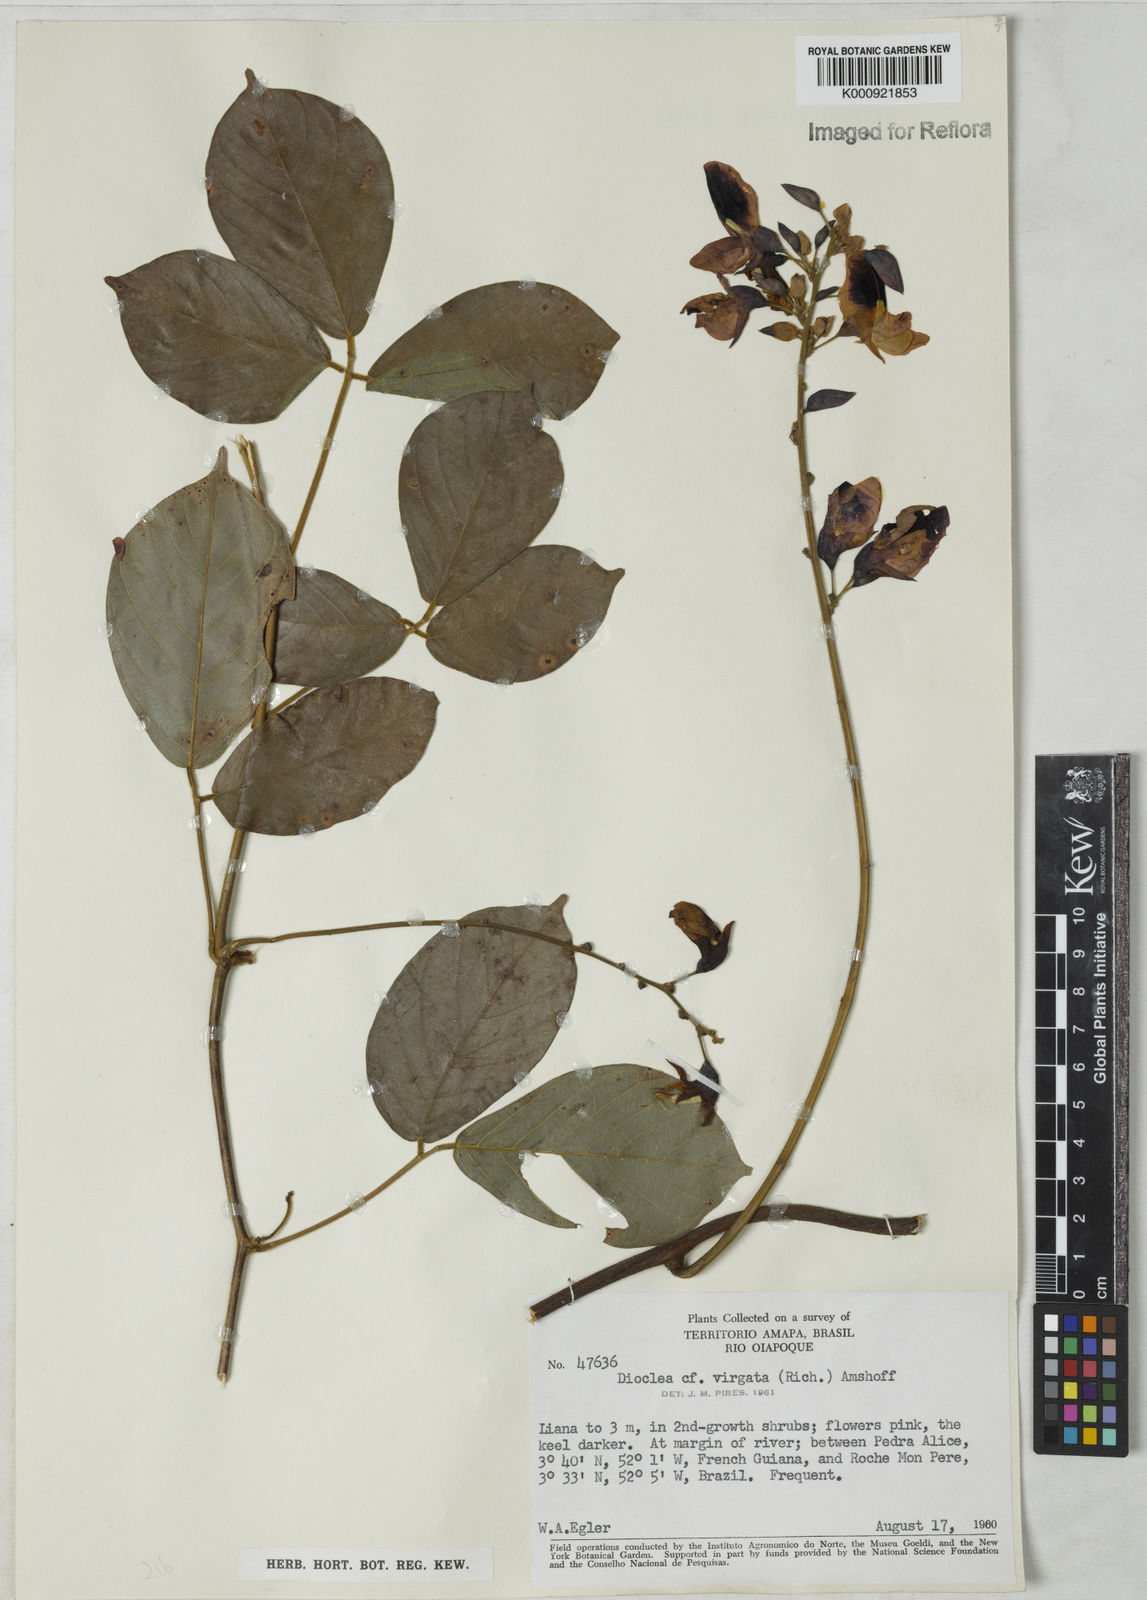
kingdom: Plantae
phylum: Tracheophyta
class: Magnoliopsida
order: Fabales
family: Fabaceae
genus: Dioclea
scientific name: Dioclea virgata
